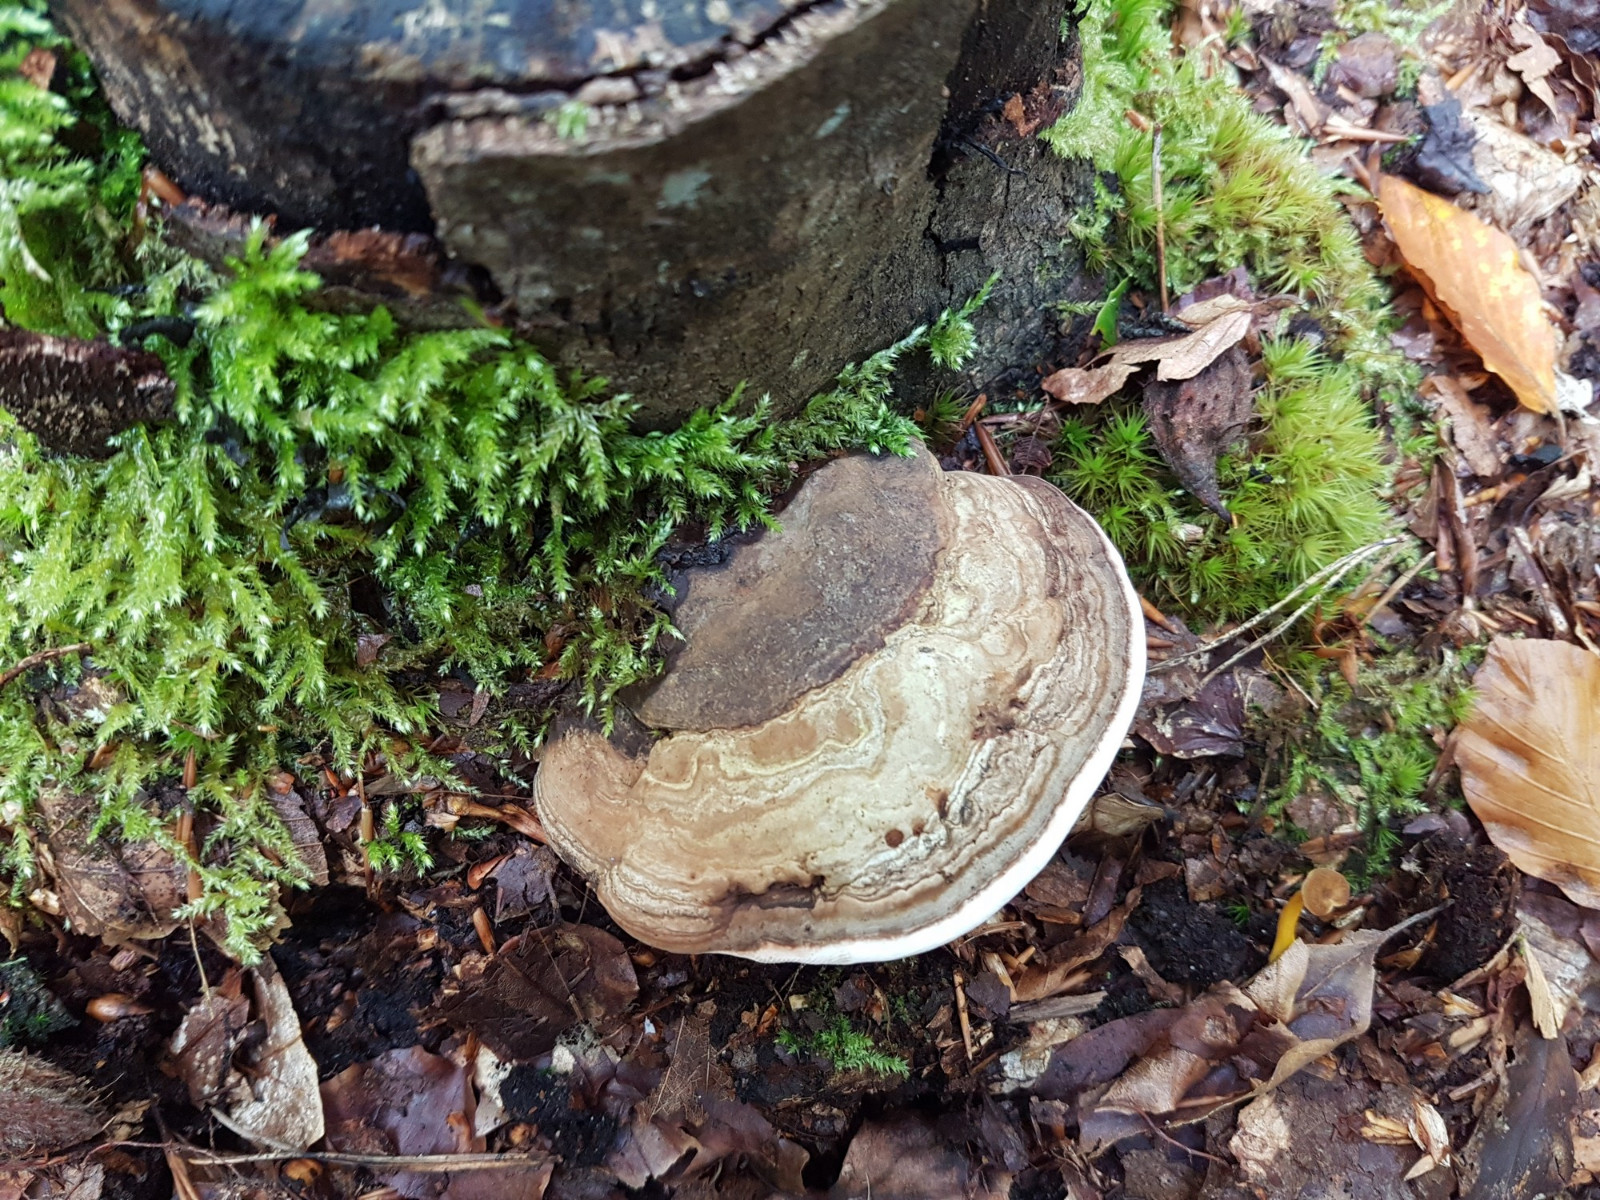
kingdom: Fungi
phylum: Basidiomycota
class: Agaricomycetes
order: Polyporales
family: Polyporaceae
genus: Ganoderma
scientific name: Ganoderma applanatum
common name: flad lakporesvamp
